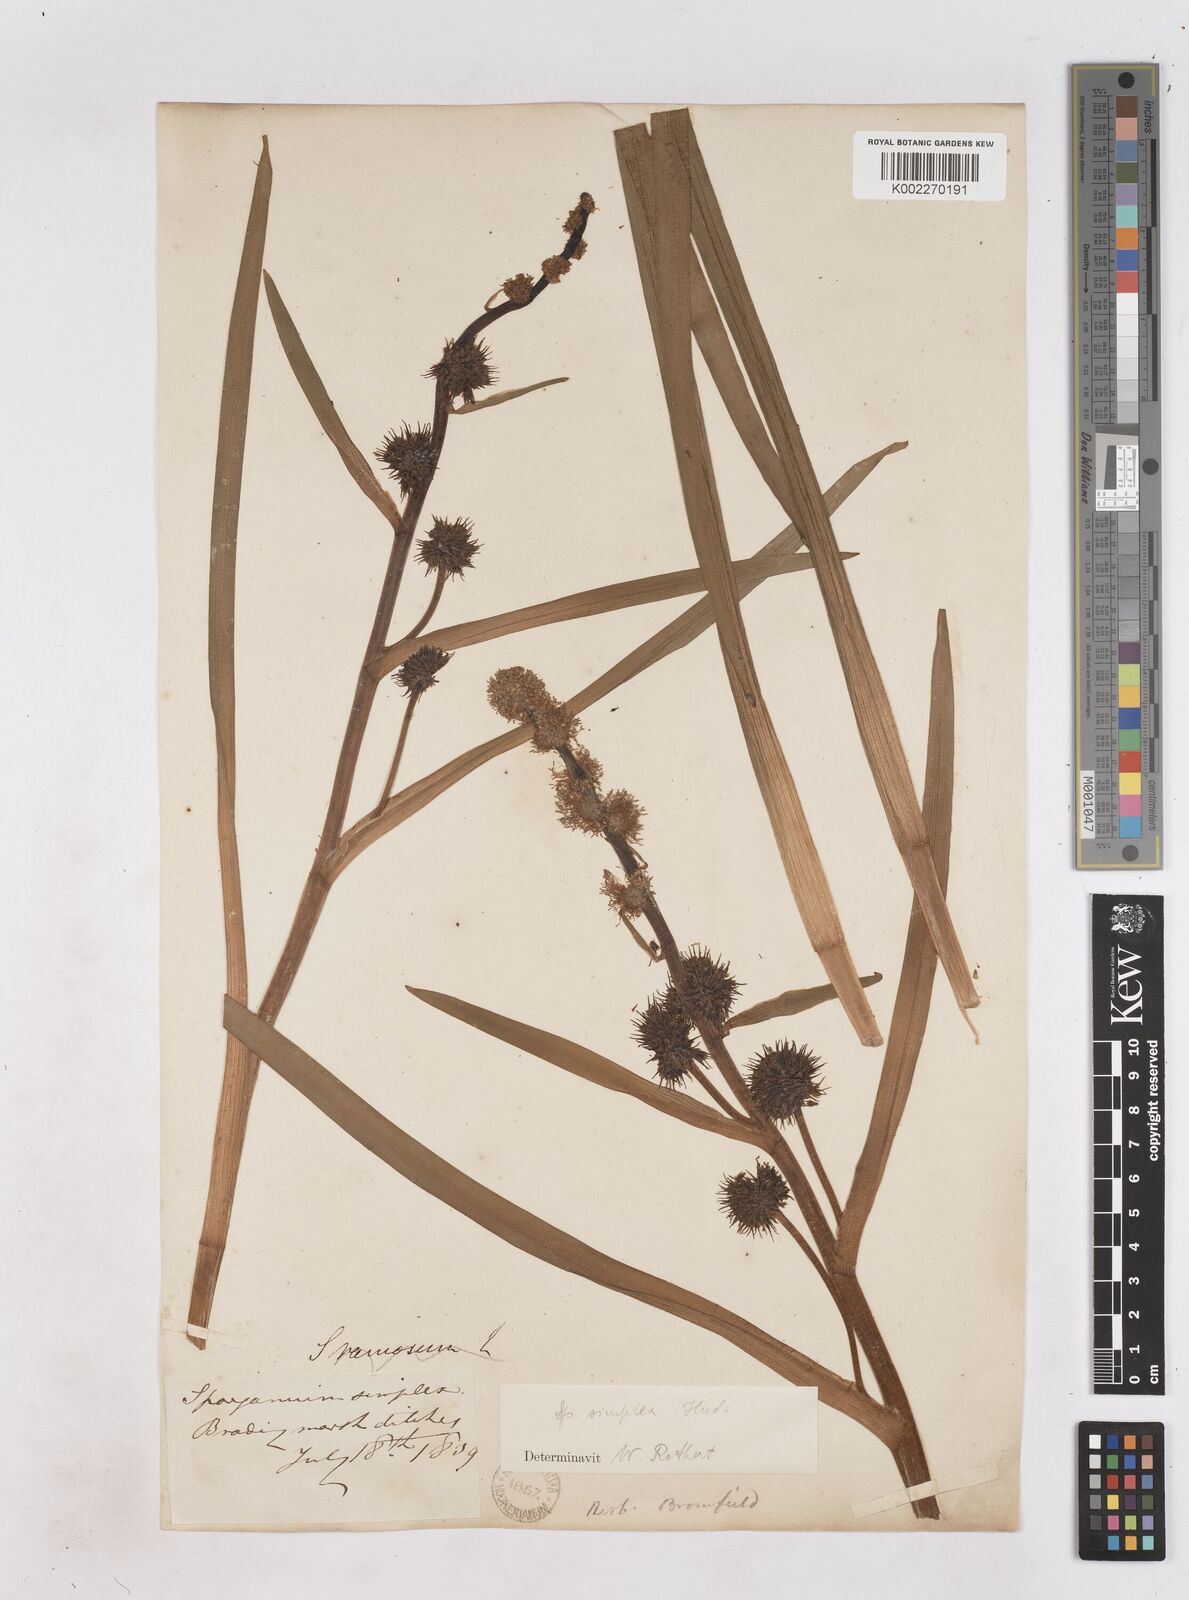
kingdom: Plantae
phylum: Tracheophyta
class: Liliopsida
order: Poales
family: Typhaceae
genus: Sparganium
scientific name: Sparganium emersum
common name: Unbranched bur-reed
